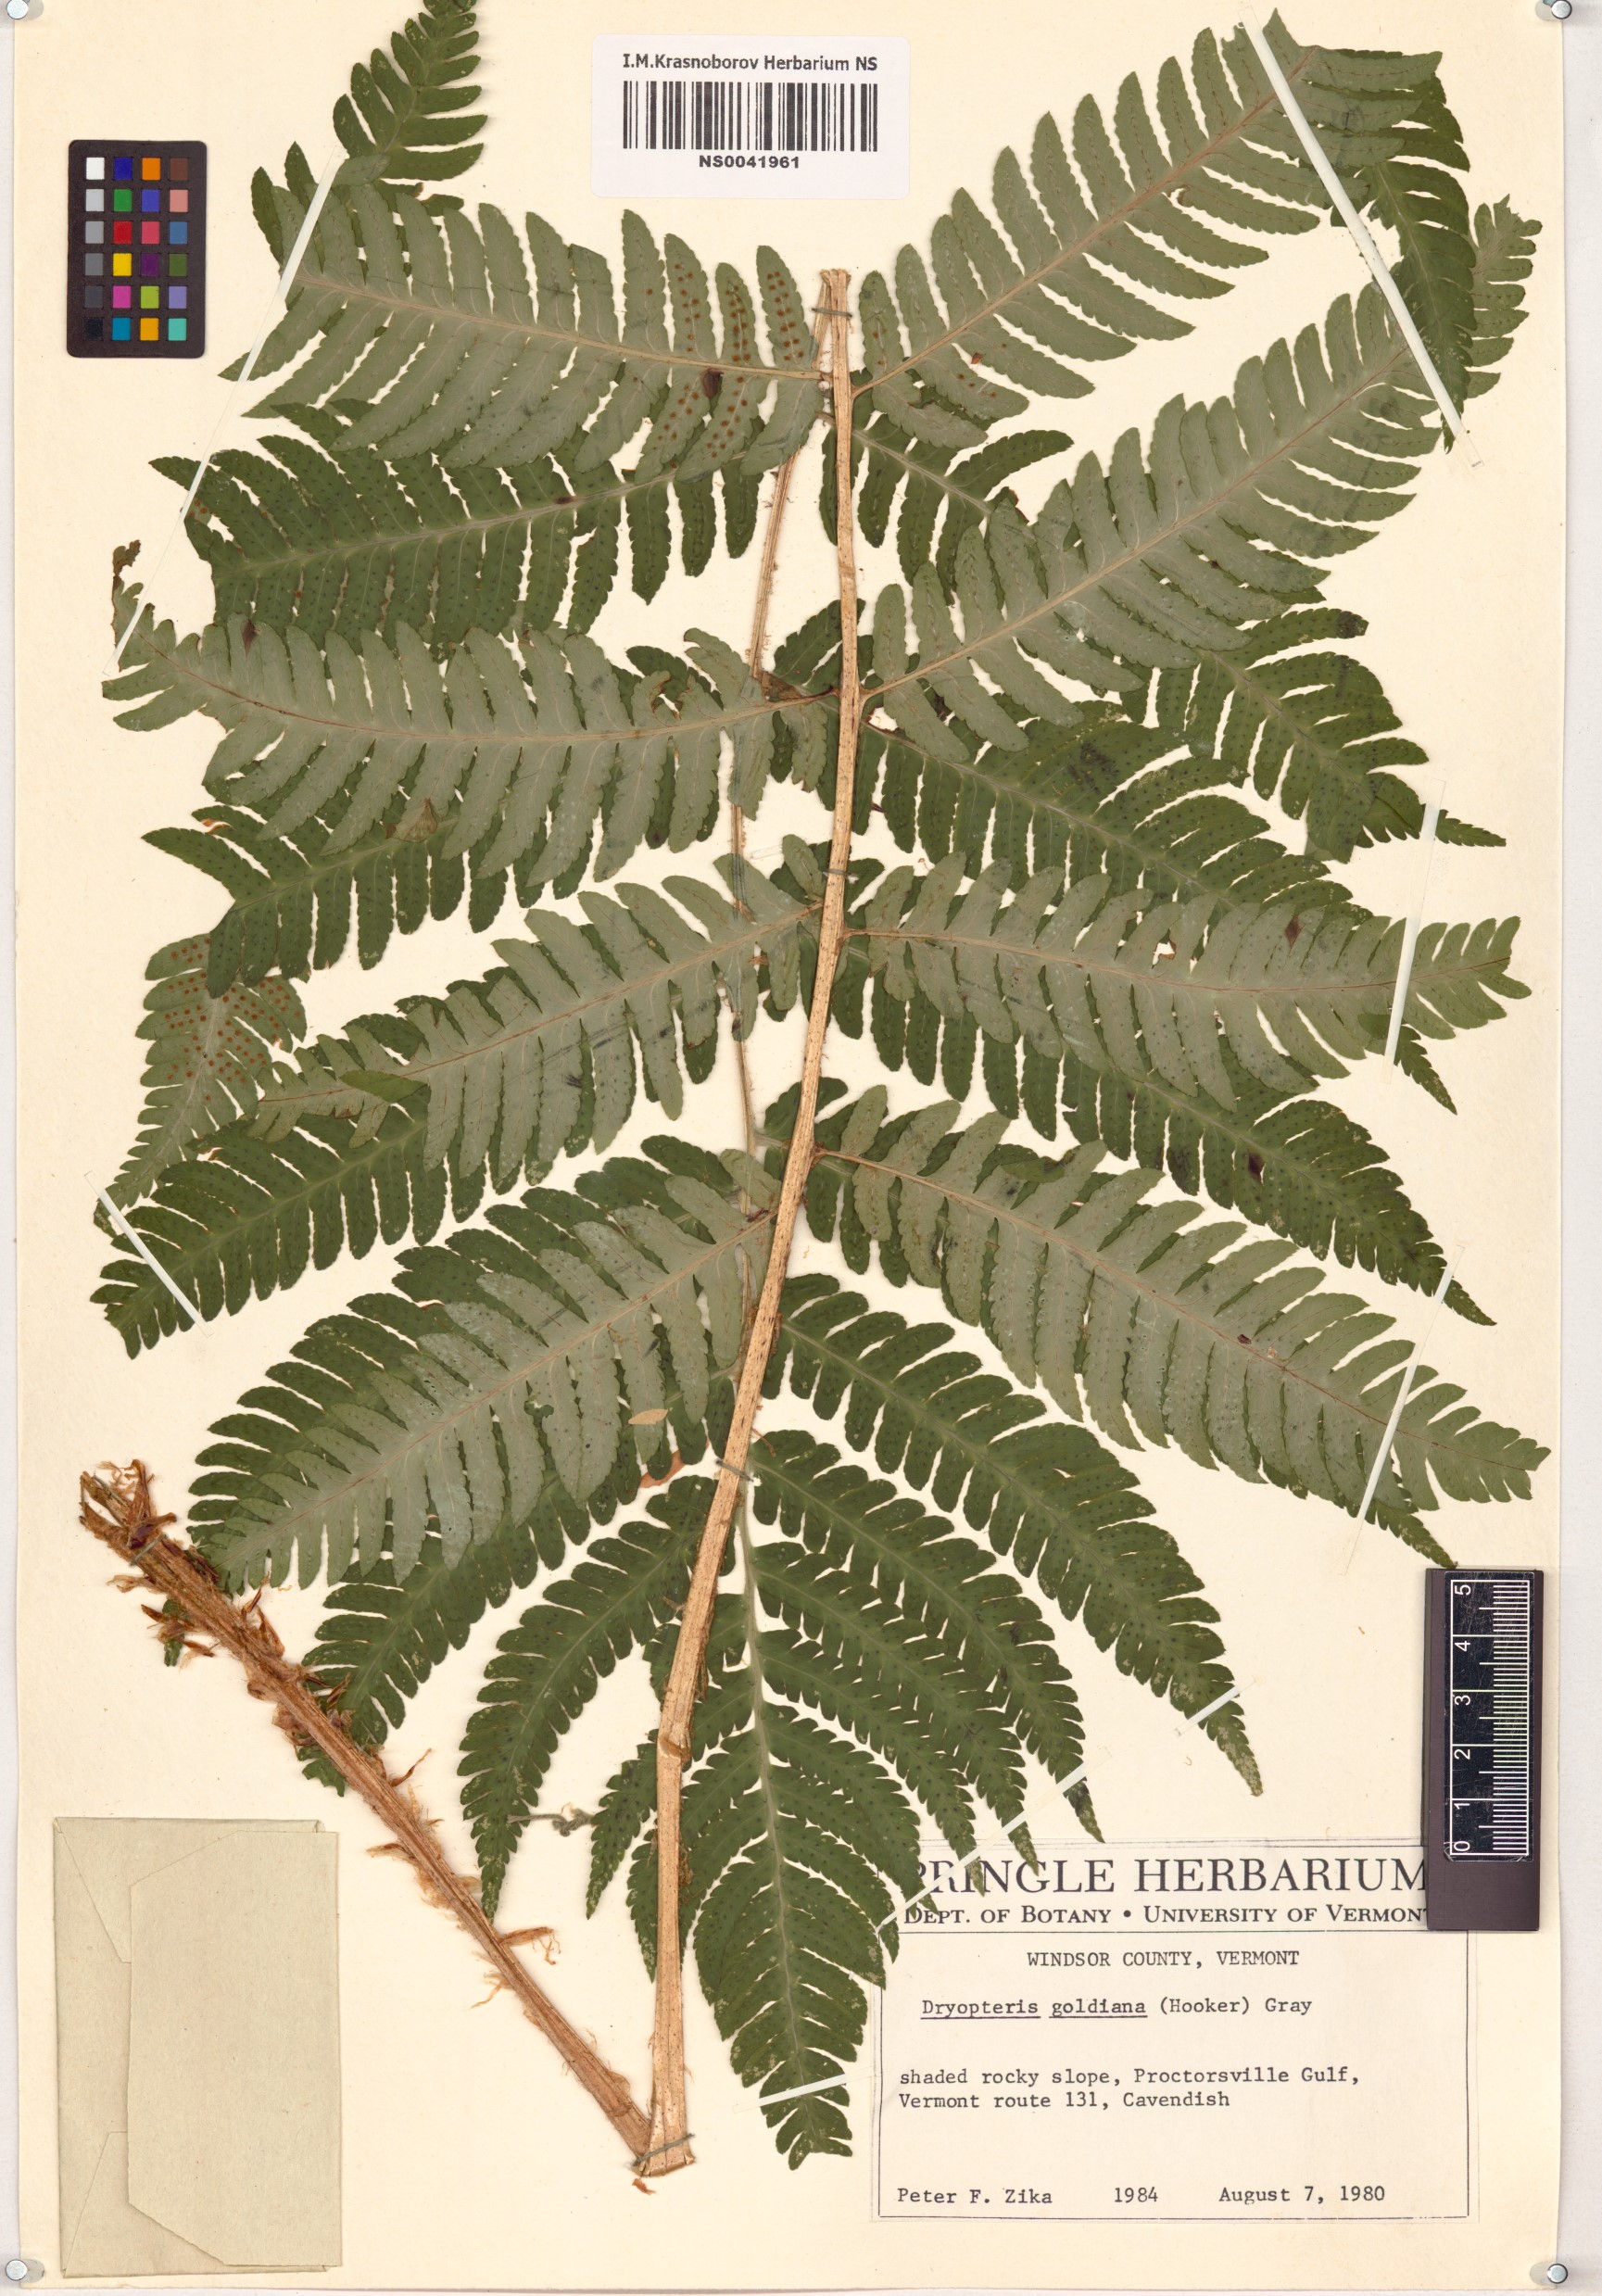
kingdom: Plantae
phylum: Tracheophyta
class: Polypodiopsida
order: Polypodiales
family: Dryopteridaceae
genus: Dryopteris
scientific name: Dryopteris goldieana
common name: Goldie's fern
